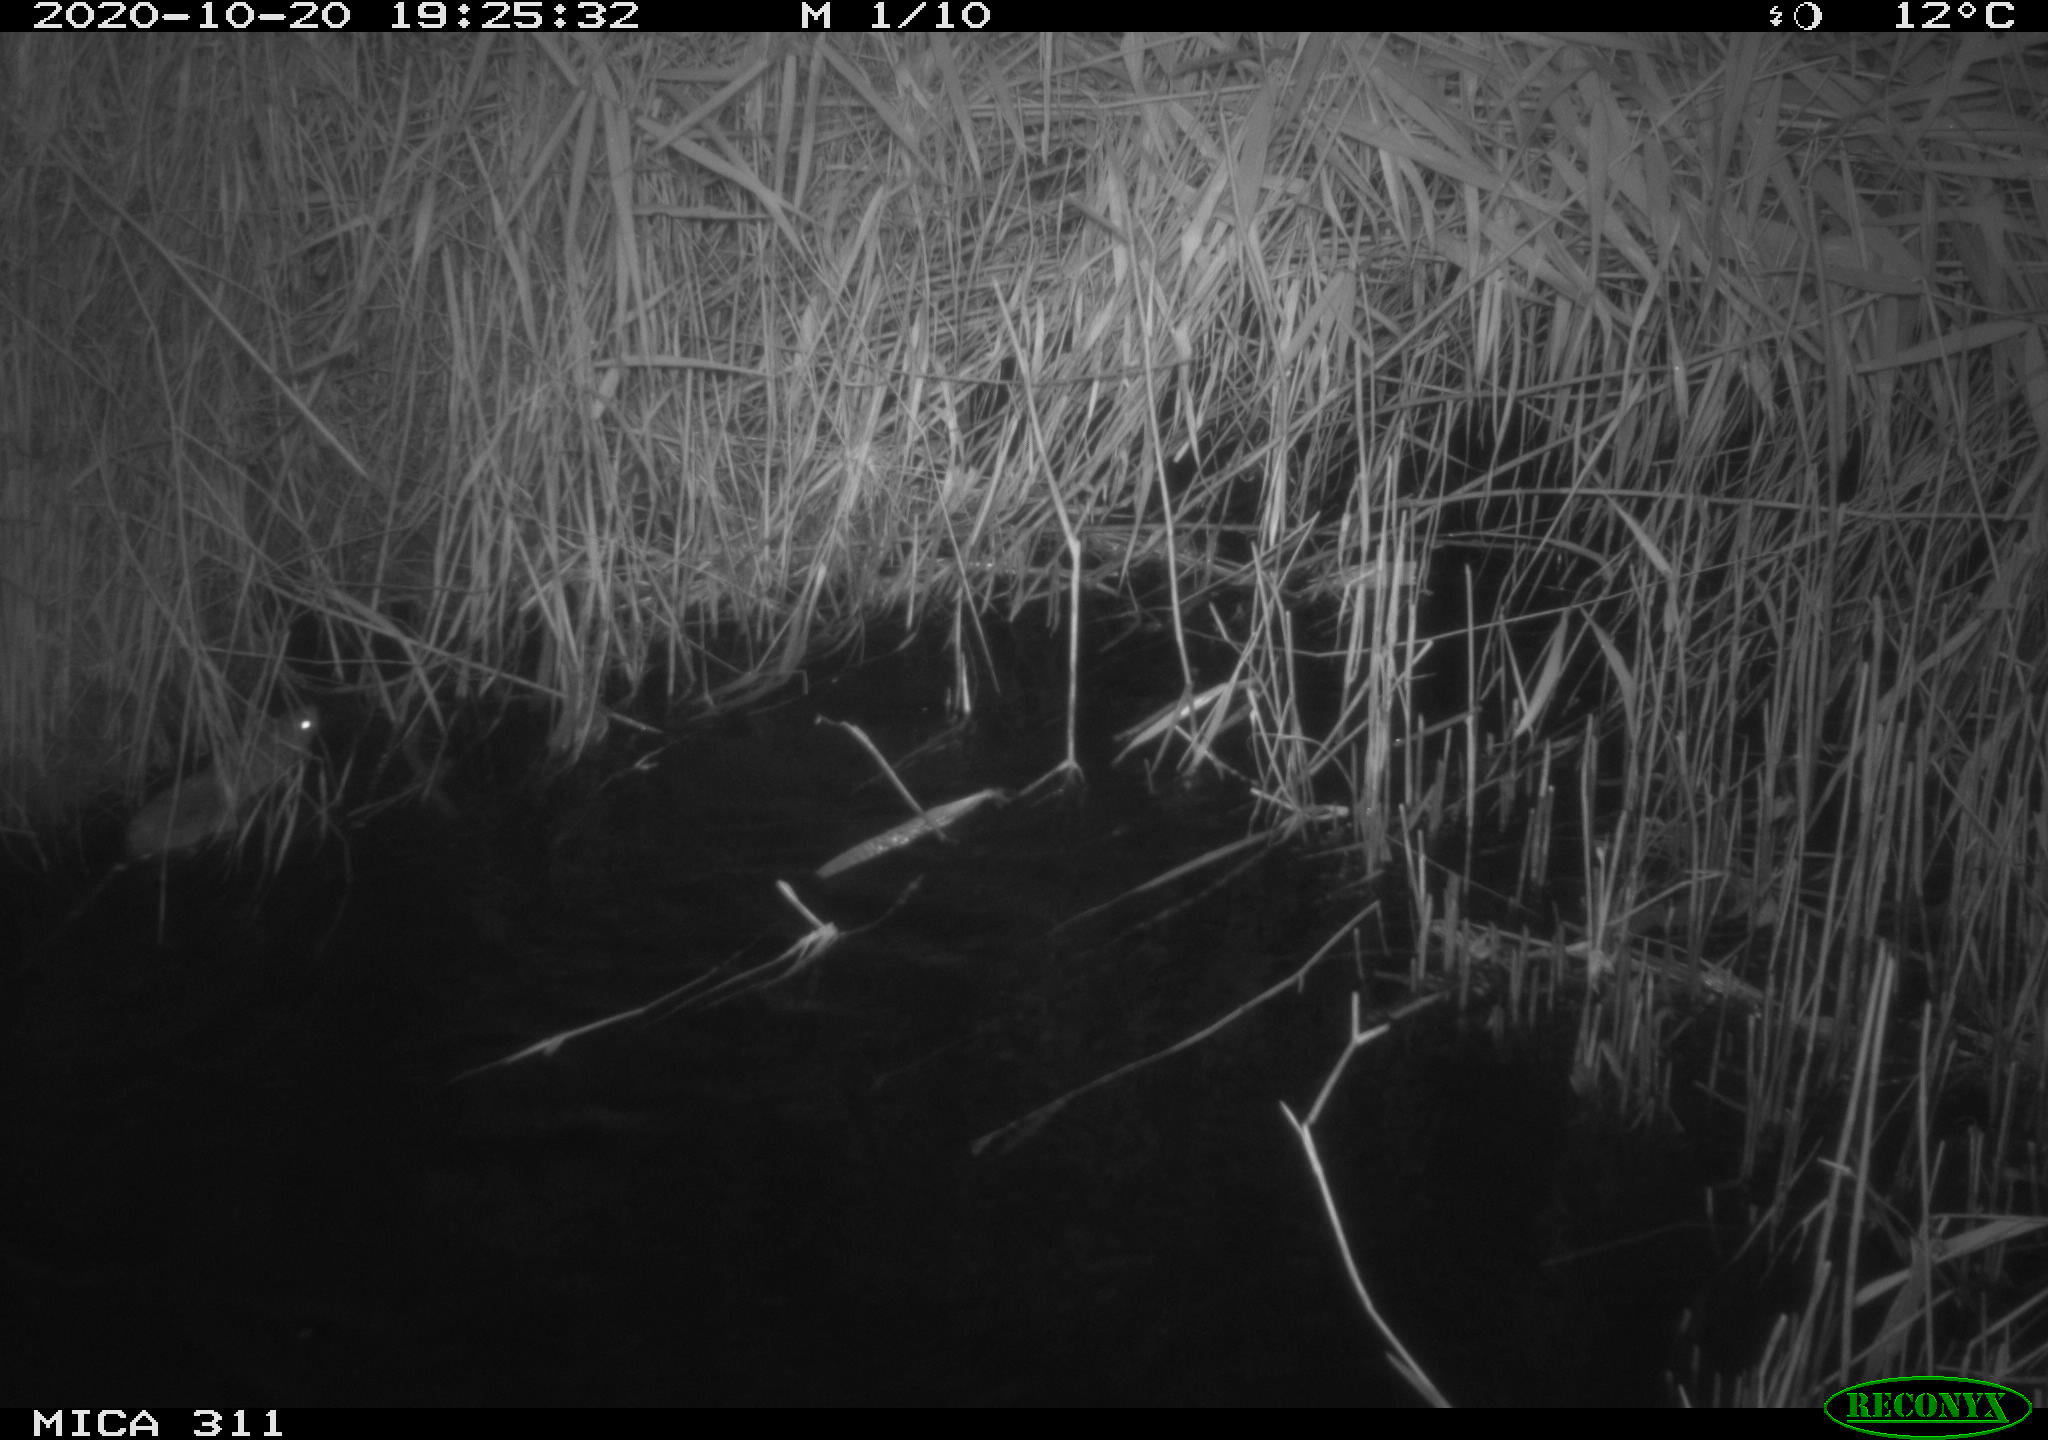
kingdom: Animalia
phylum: Chordata
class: Mammalia
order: Rodentia
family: Cricetidae
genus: Ondatra
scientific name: Ondatra zibethicus
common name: Muskrat
